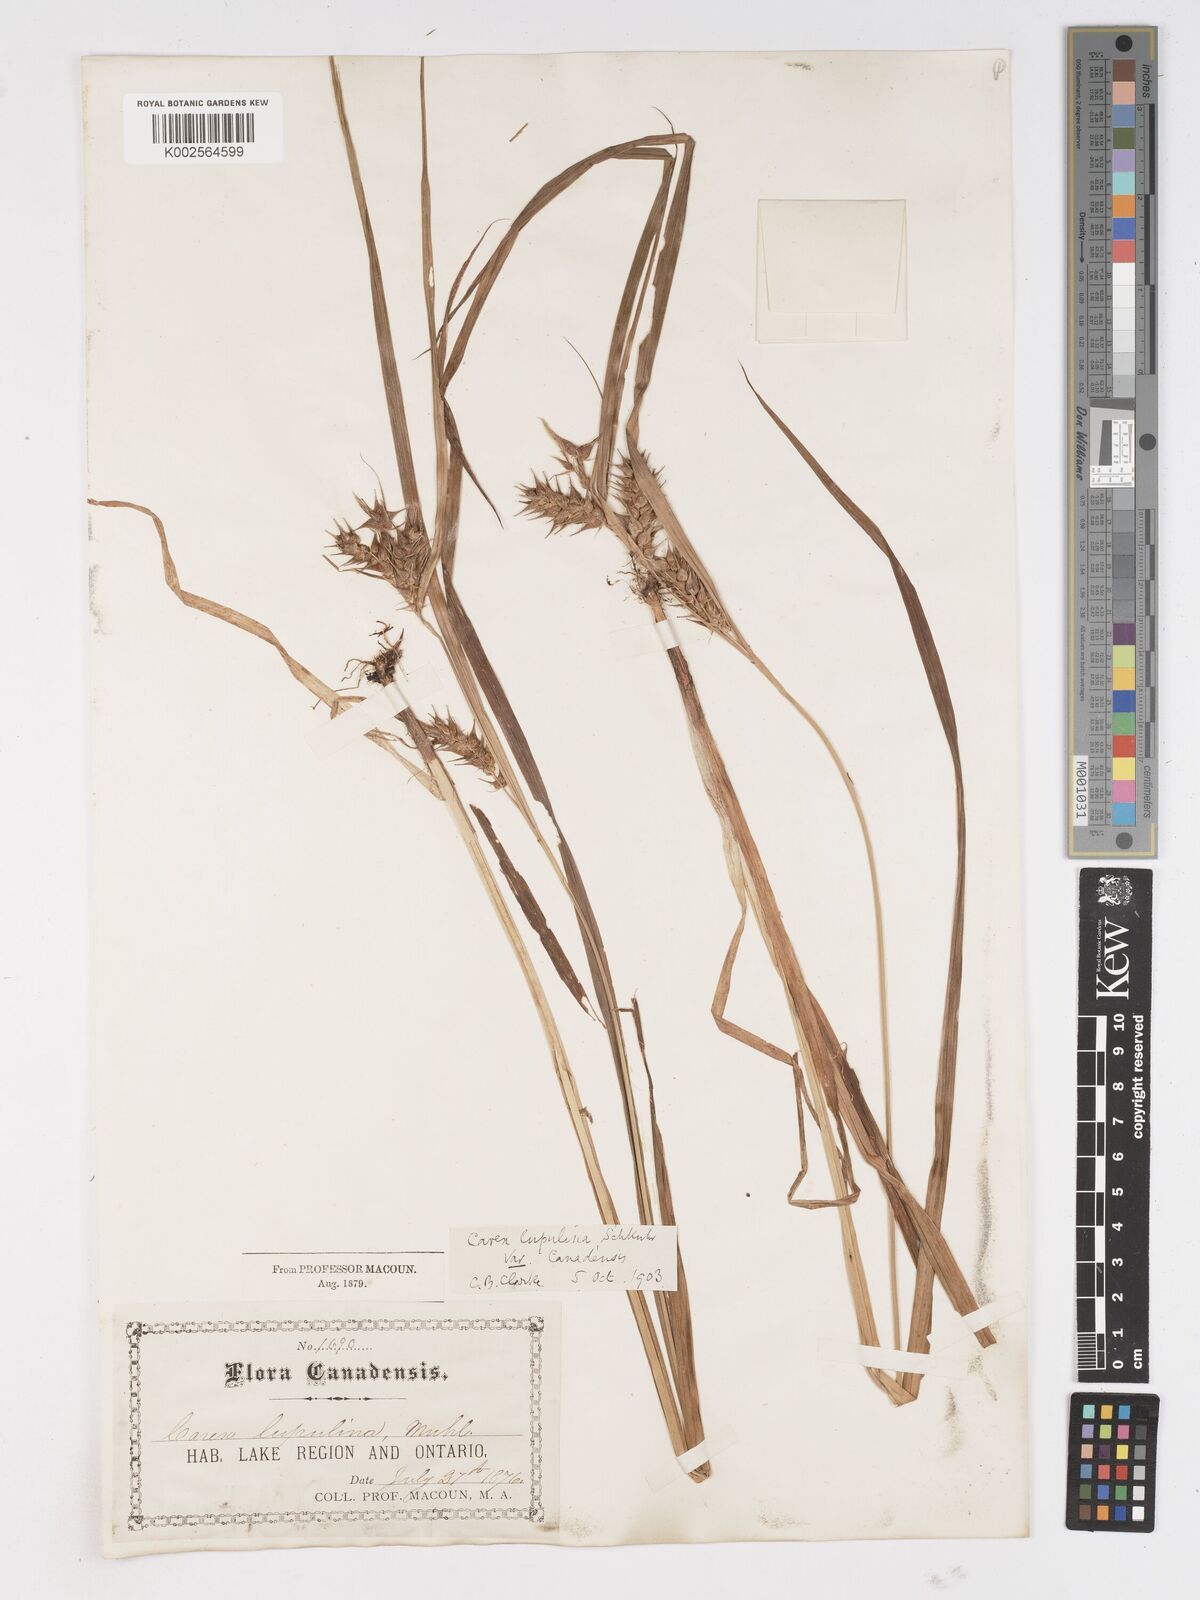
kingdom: Plantae
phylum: Tracheophyta
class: Liliopsida
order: Poales
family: Cyperaceae
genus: Carex
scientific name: Carex lupulina
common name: Hop sedge
